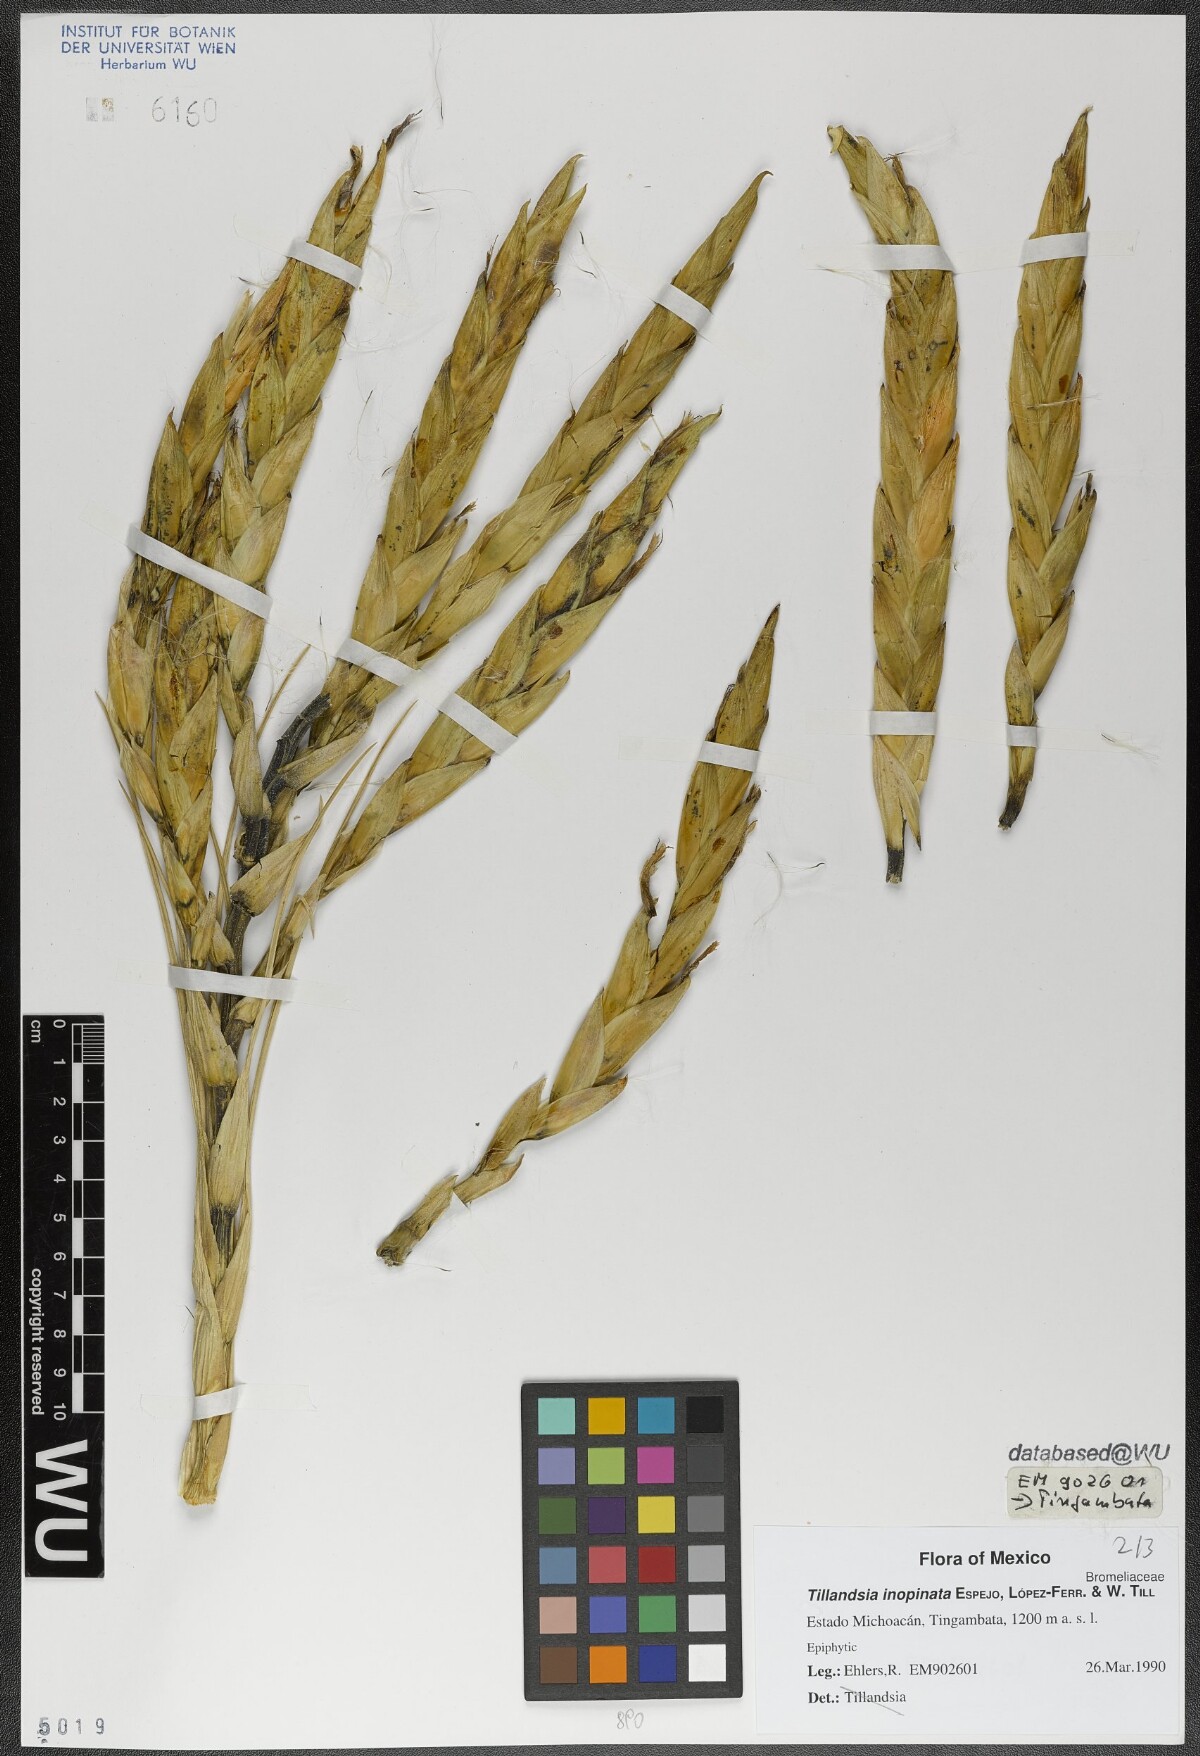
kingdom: Plantae
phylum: Tracheophyta
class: Liliopsida
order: Poales
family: Bromeliaceae
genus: Tillandsia
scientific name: Tillandsia inopinata
